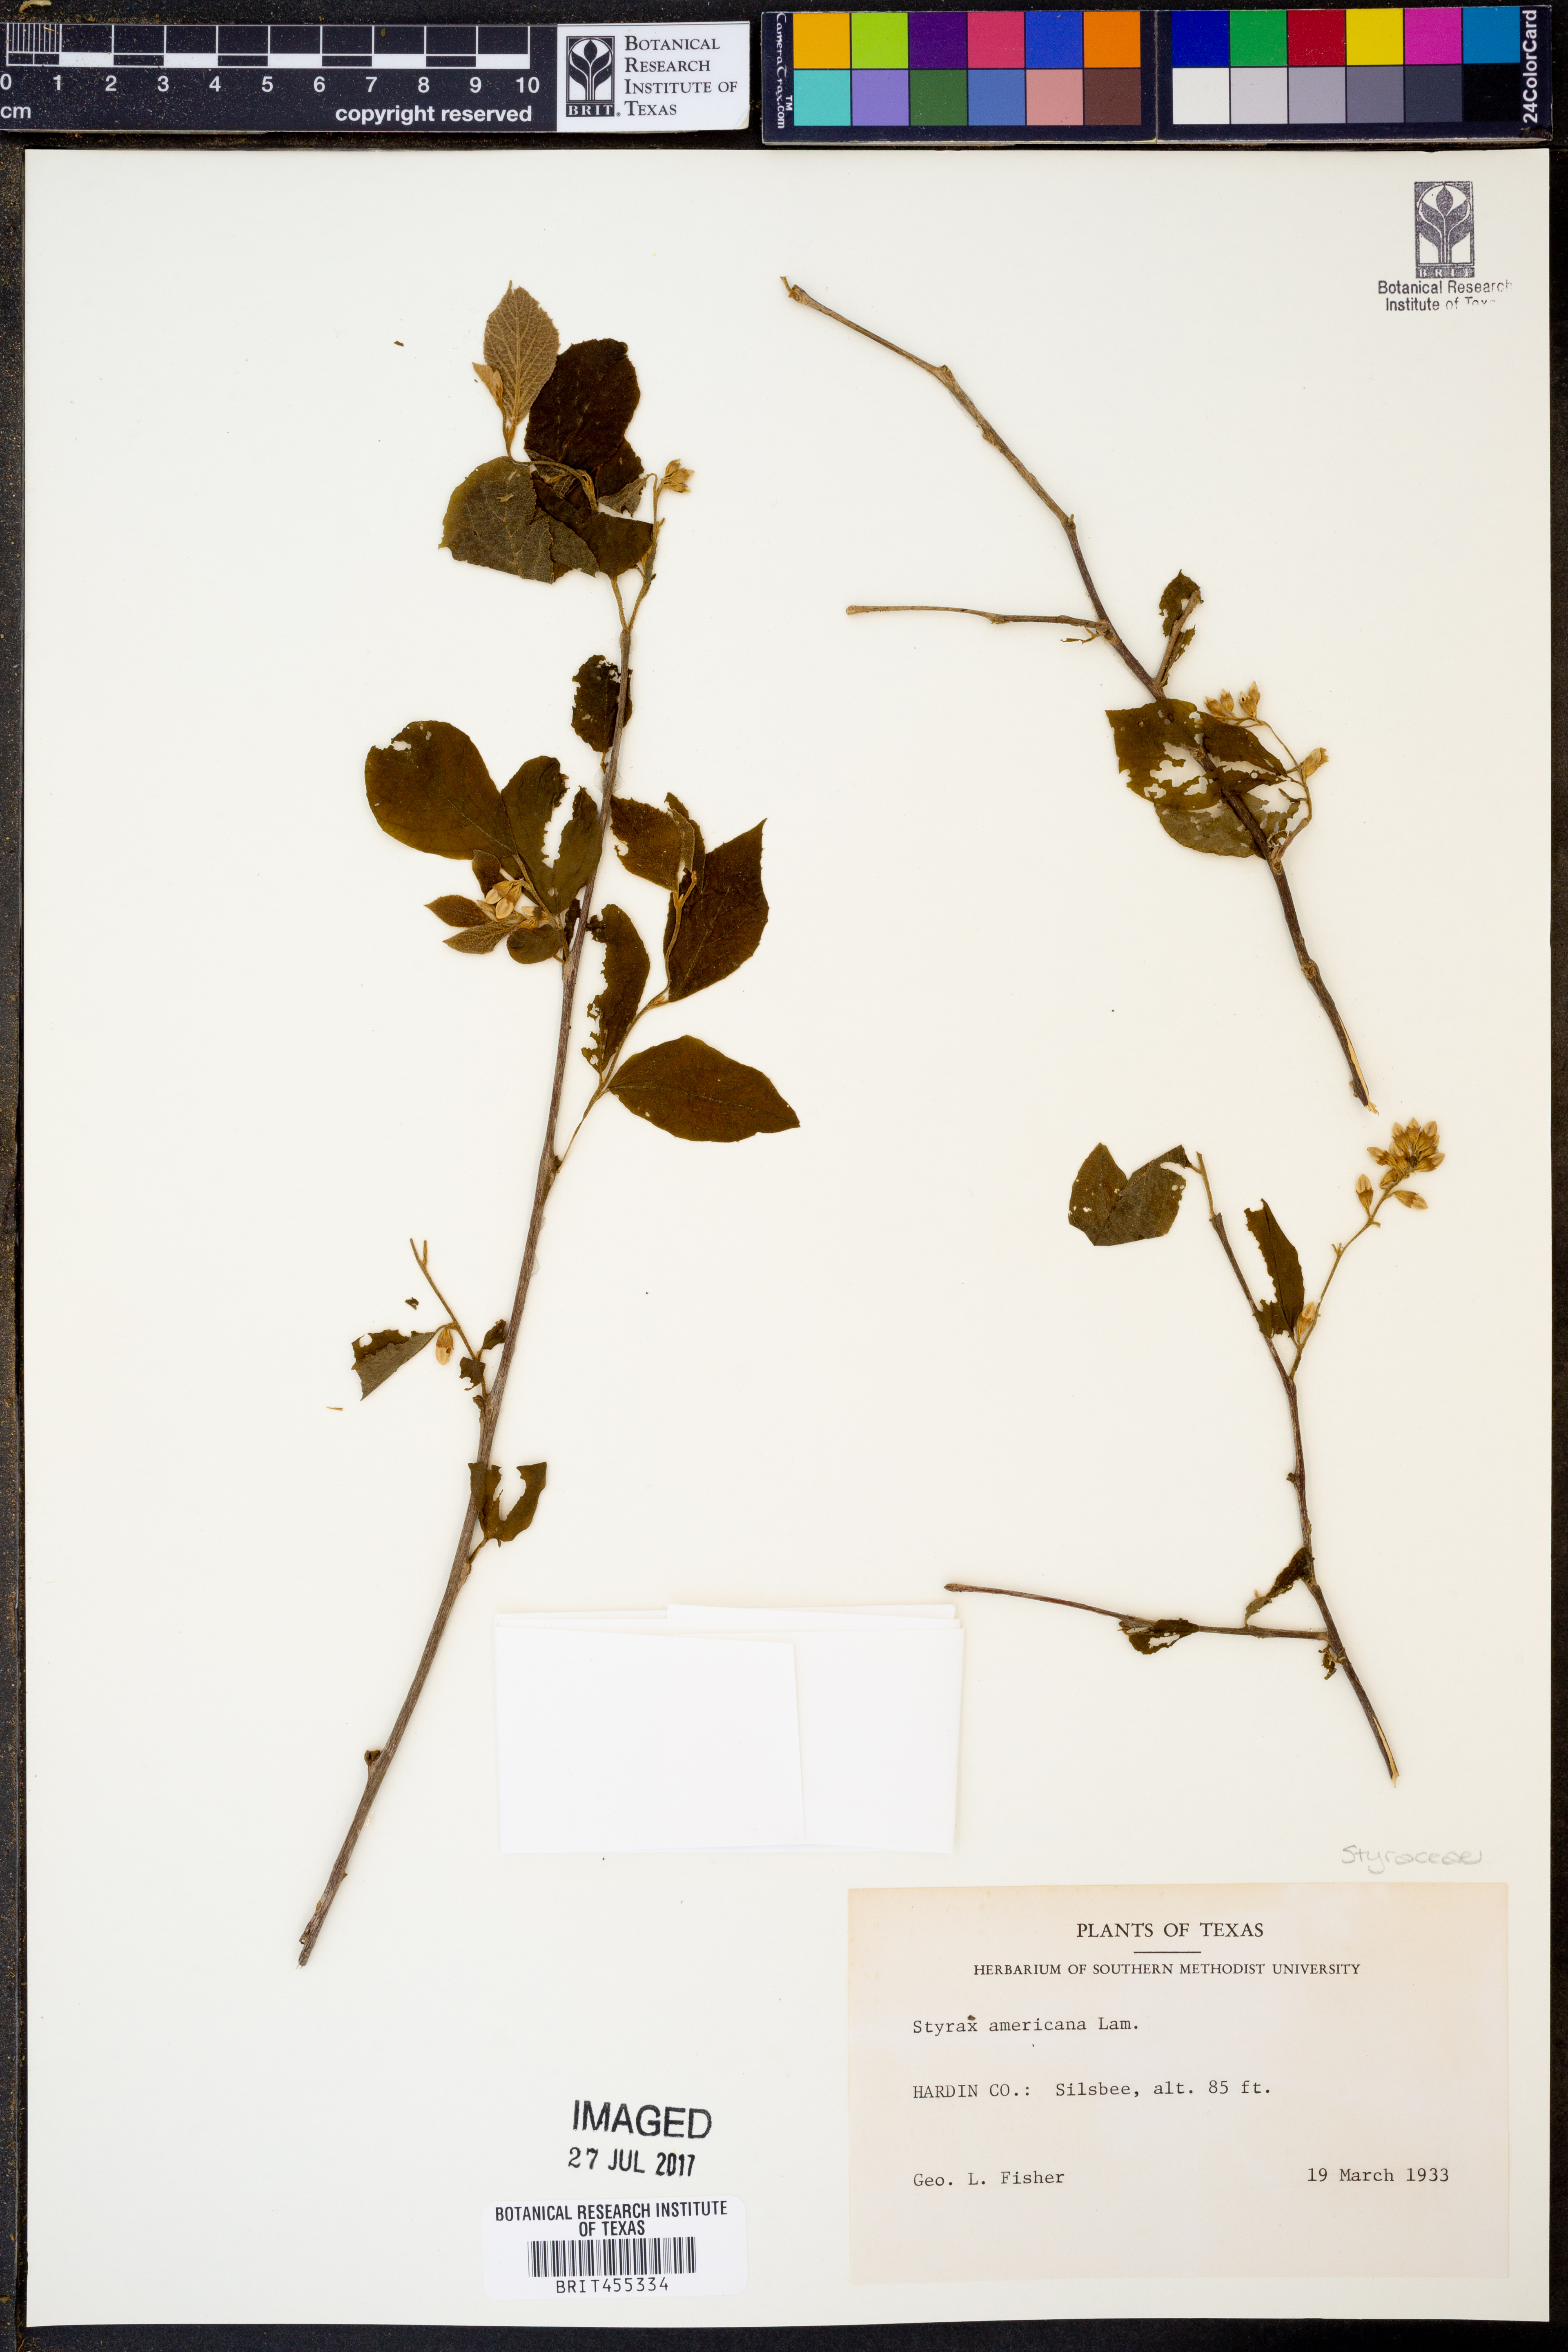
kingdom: Plantae
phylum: Tracheophyta
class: Magnoliopsida
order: Ericales
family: Styracaceae
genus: Styrax
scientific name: Styrax americanus
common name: American snowbell
